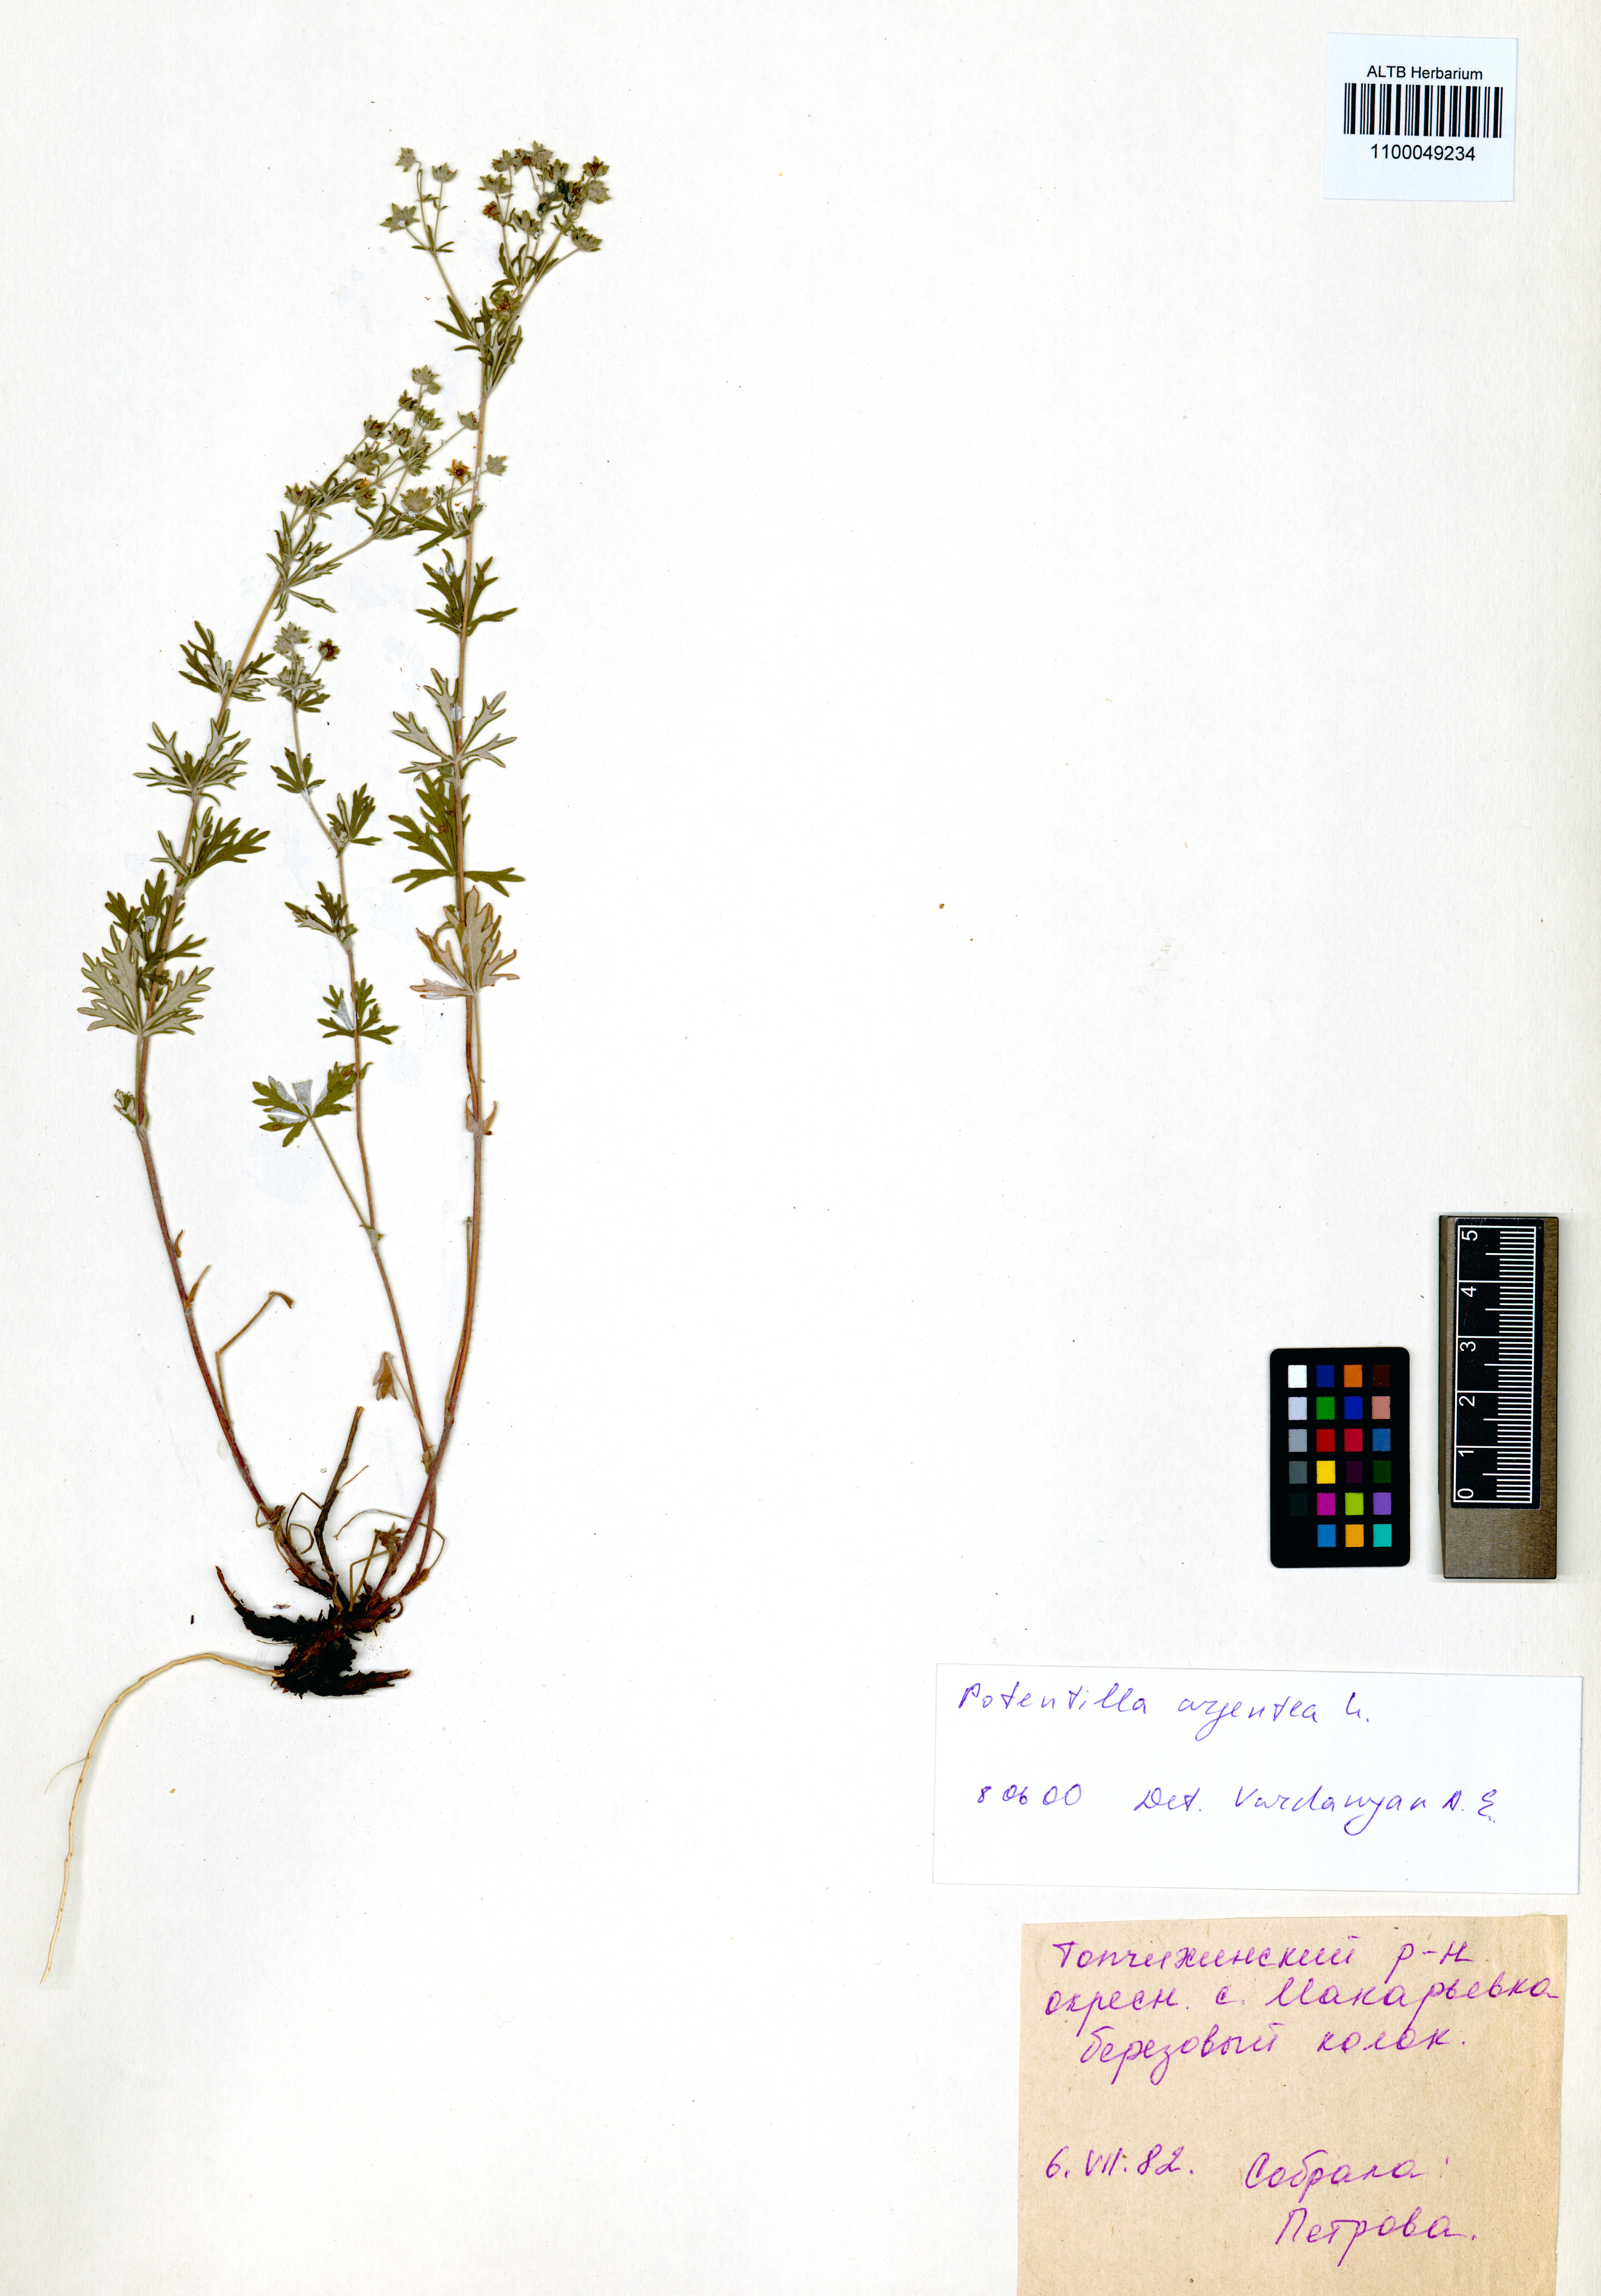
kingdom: Plantae
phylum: Tracheophyta
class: Magnoliopsida
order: Rosales
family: Rosaceae
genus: Potentilla
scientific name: Potentilla argentea
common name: Hoary cinquefoil
